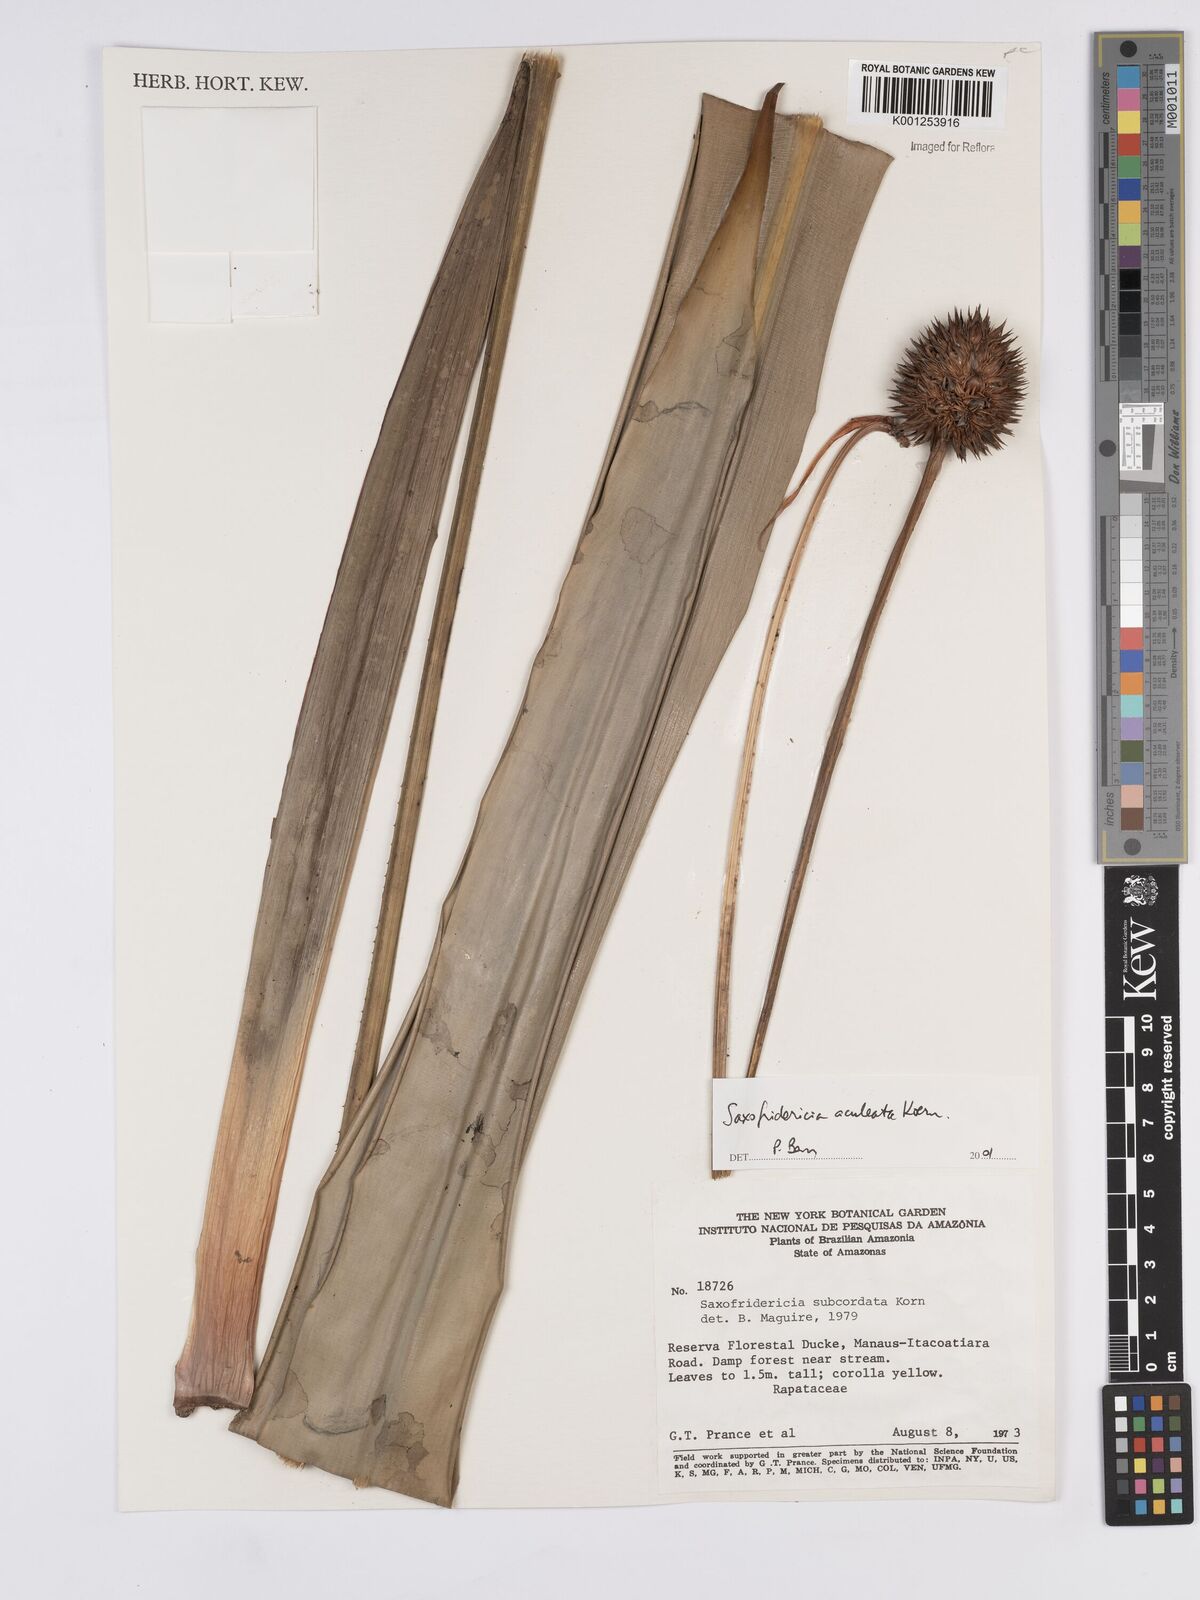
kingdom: Plantae
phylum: Tracheophyta
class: Liliopsida
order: Poales
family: Rapateaceae
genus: Saxofridericia
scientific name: Saxofridericia aculeata
